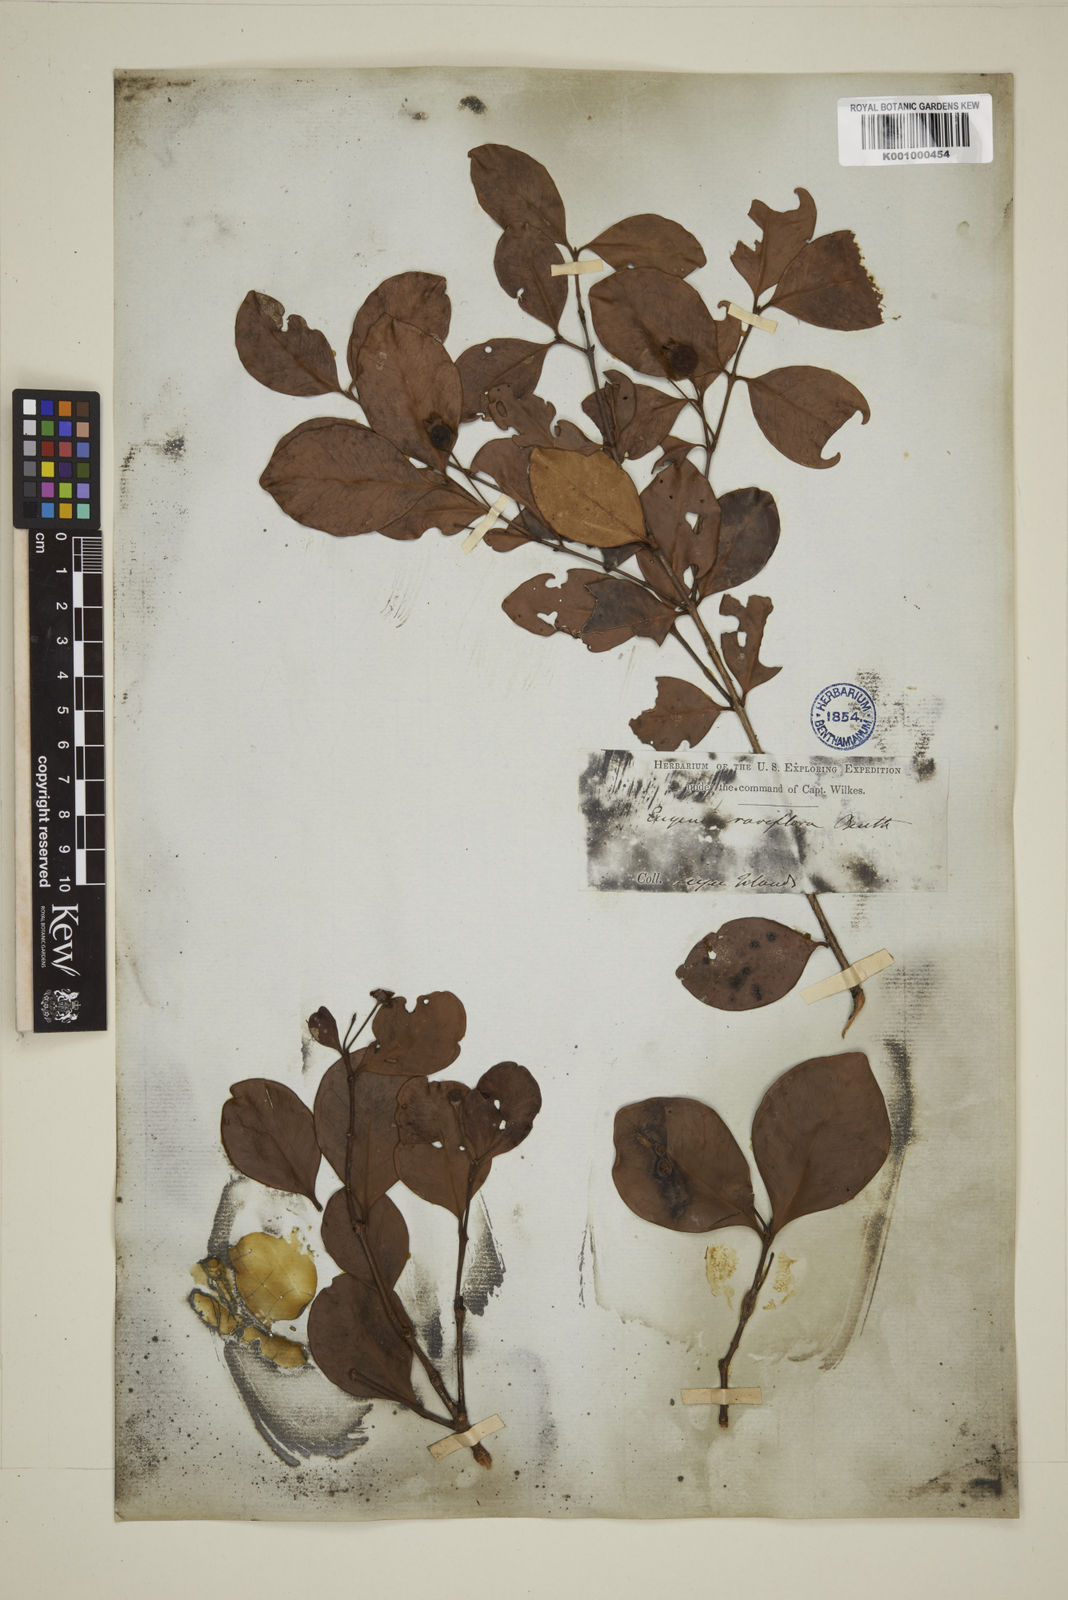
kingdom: Plantae
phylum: Tracheophyta
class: Magnoliopsida
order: Myrtales
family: Myrtaceae
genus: Eugenia
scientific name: Eugenia reinwardtiana
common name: Cedar bay-cherry
